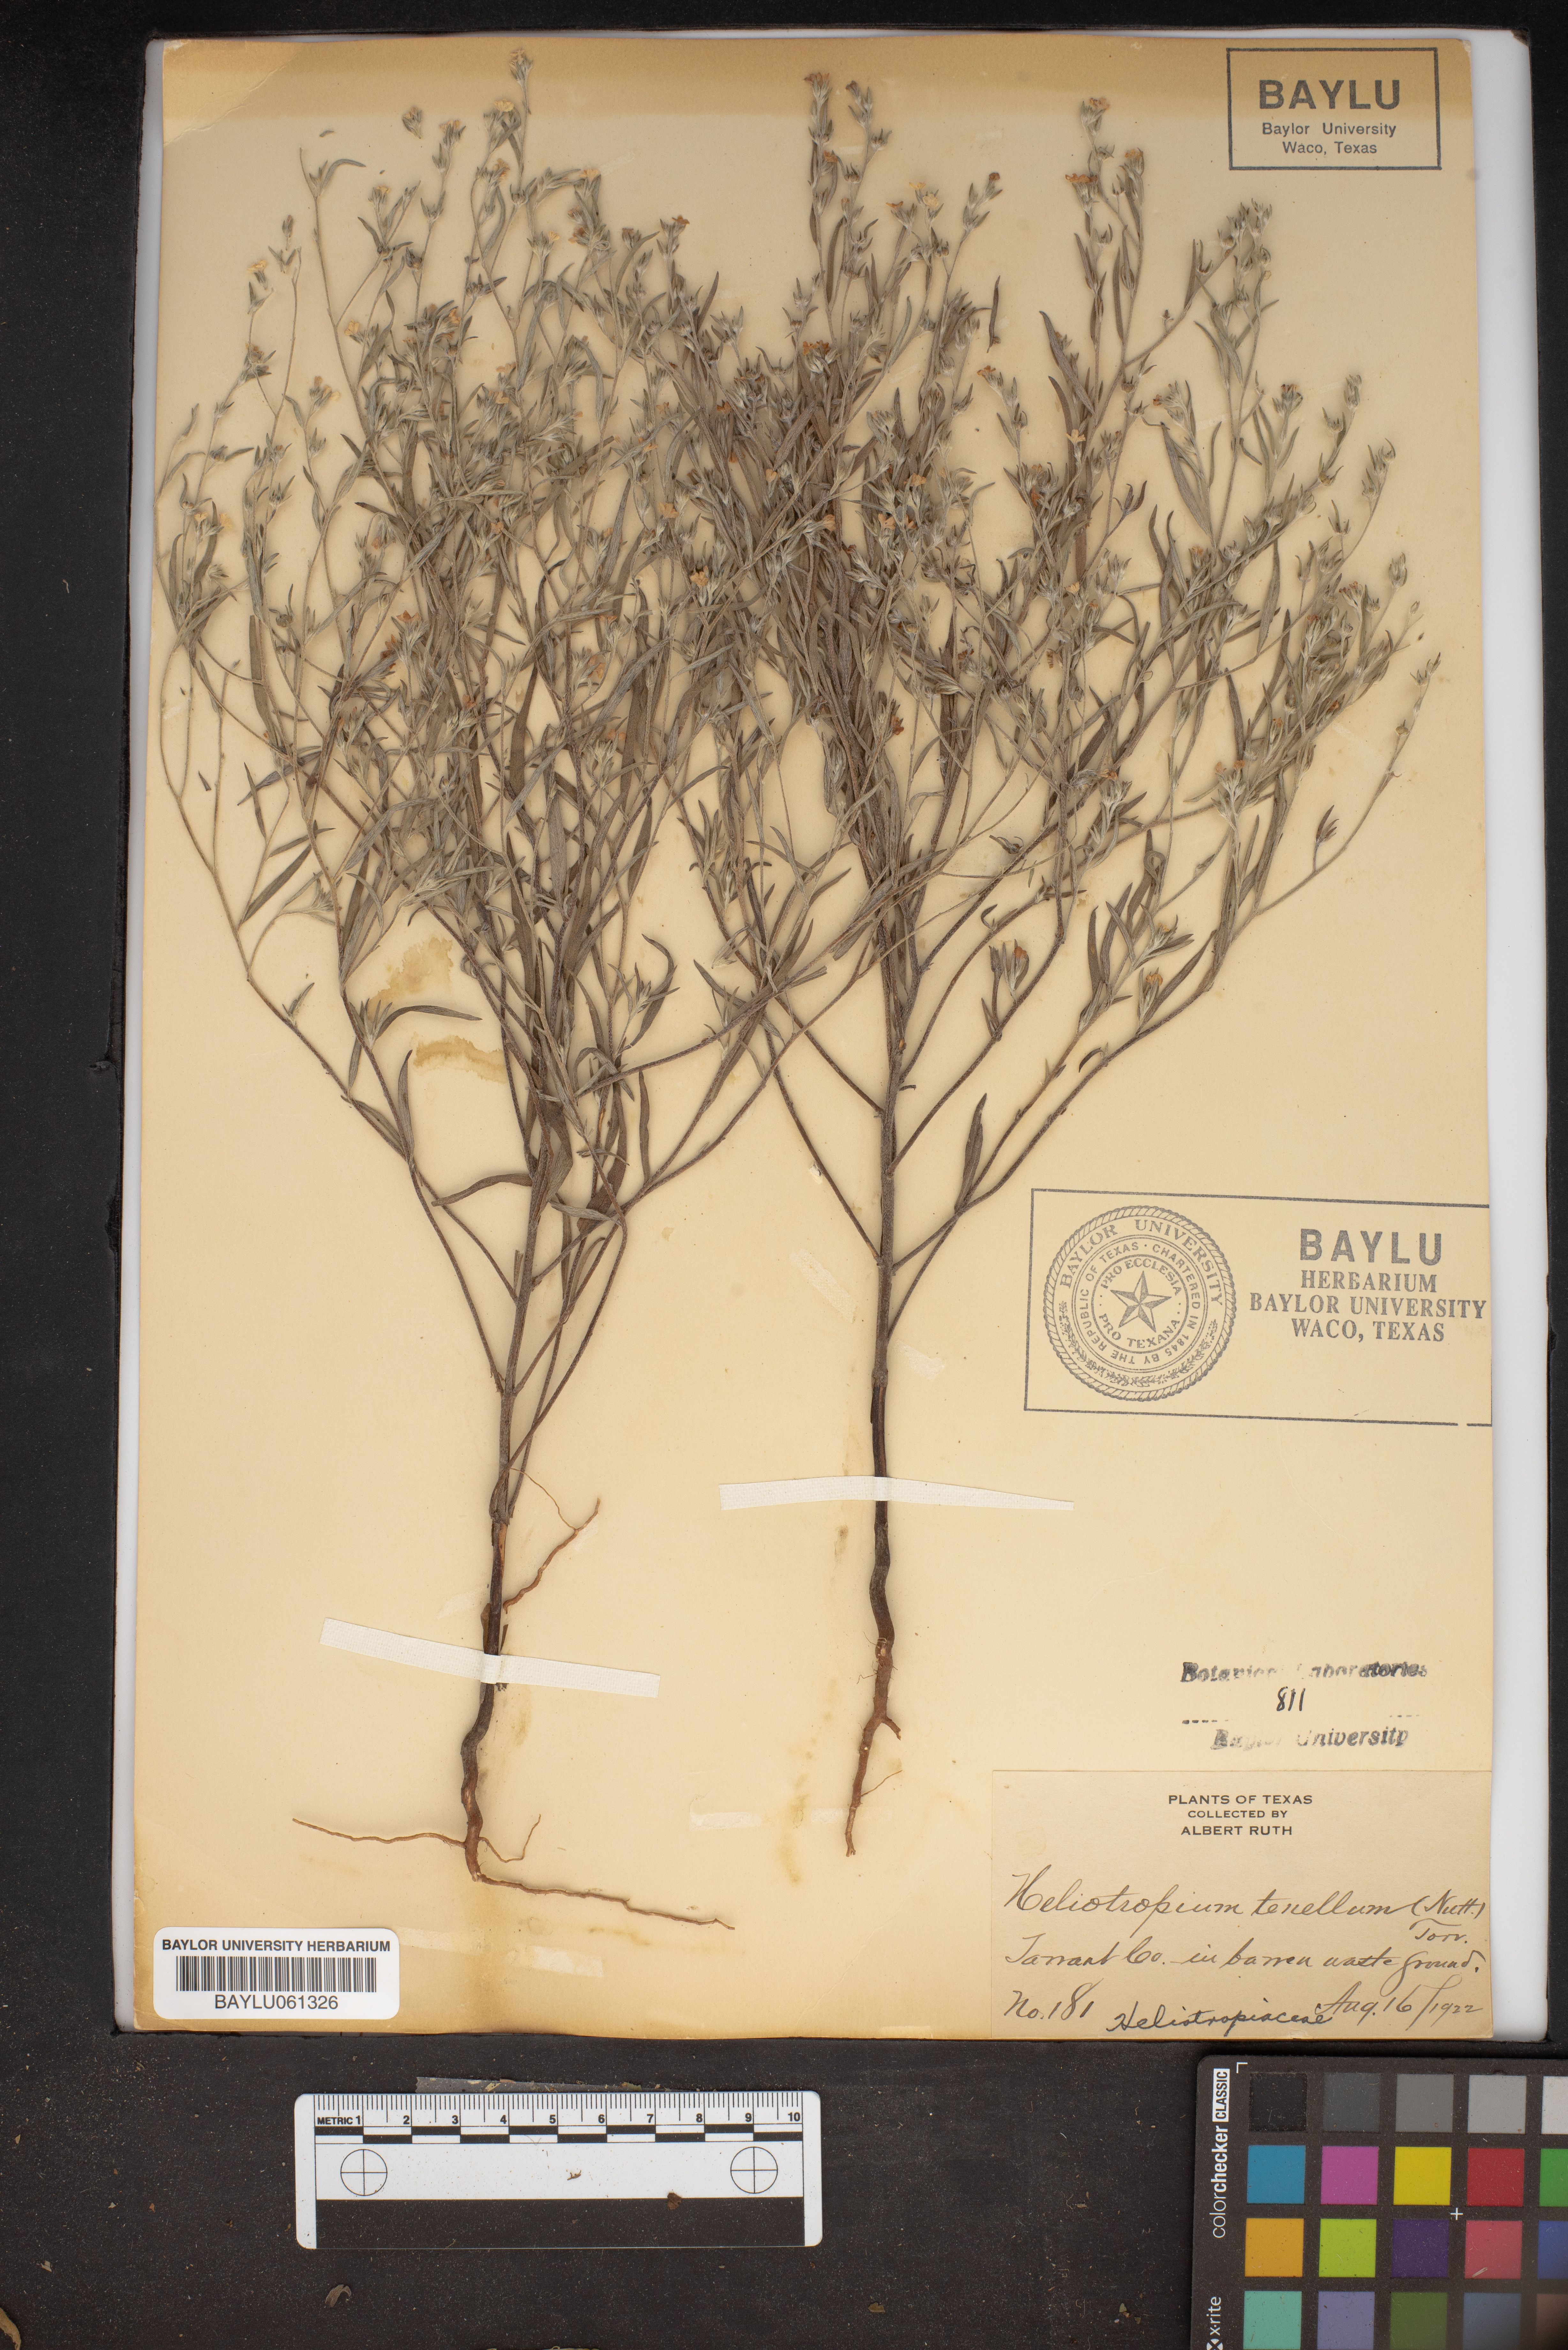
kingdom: Plantae
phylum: Tracheophyta
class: Magnoliopsida
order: Boraginales
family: Heliotropiaceae
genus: Euploca
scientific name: Euploca tenella
